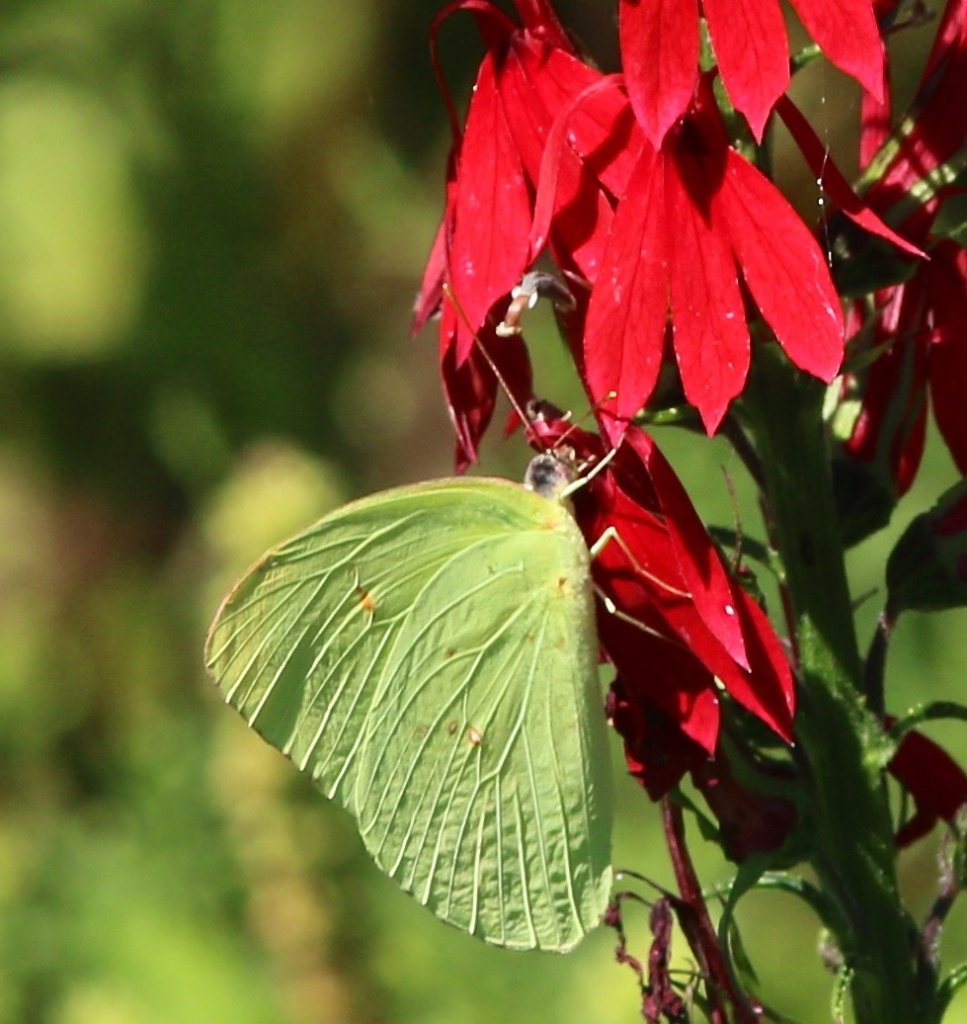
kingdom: Animalia
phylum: Arthropoda
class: Insecta
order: Lepidoptera
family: Pieridae
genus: Phoebis
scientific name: Phoebis sennae
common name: Cloudless Sulphur
